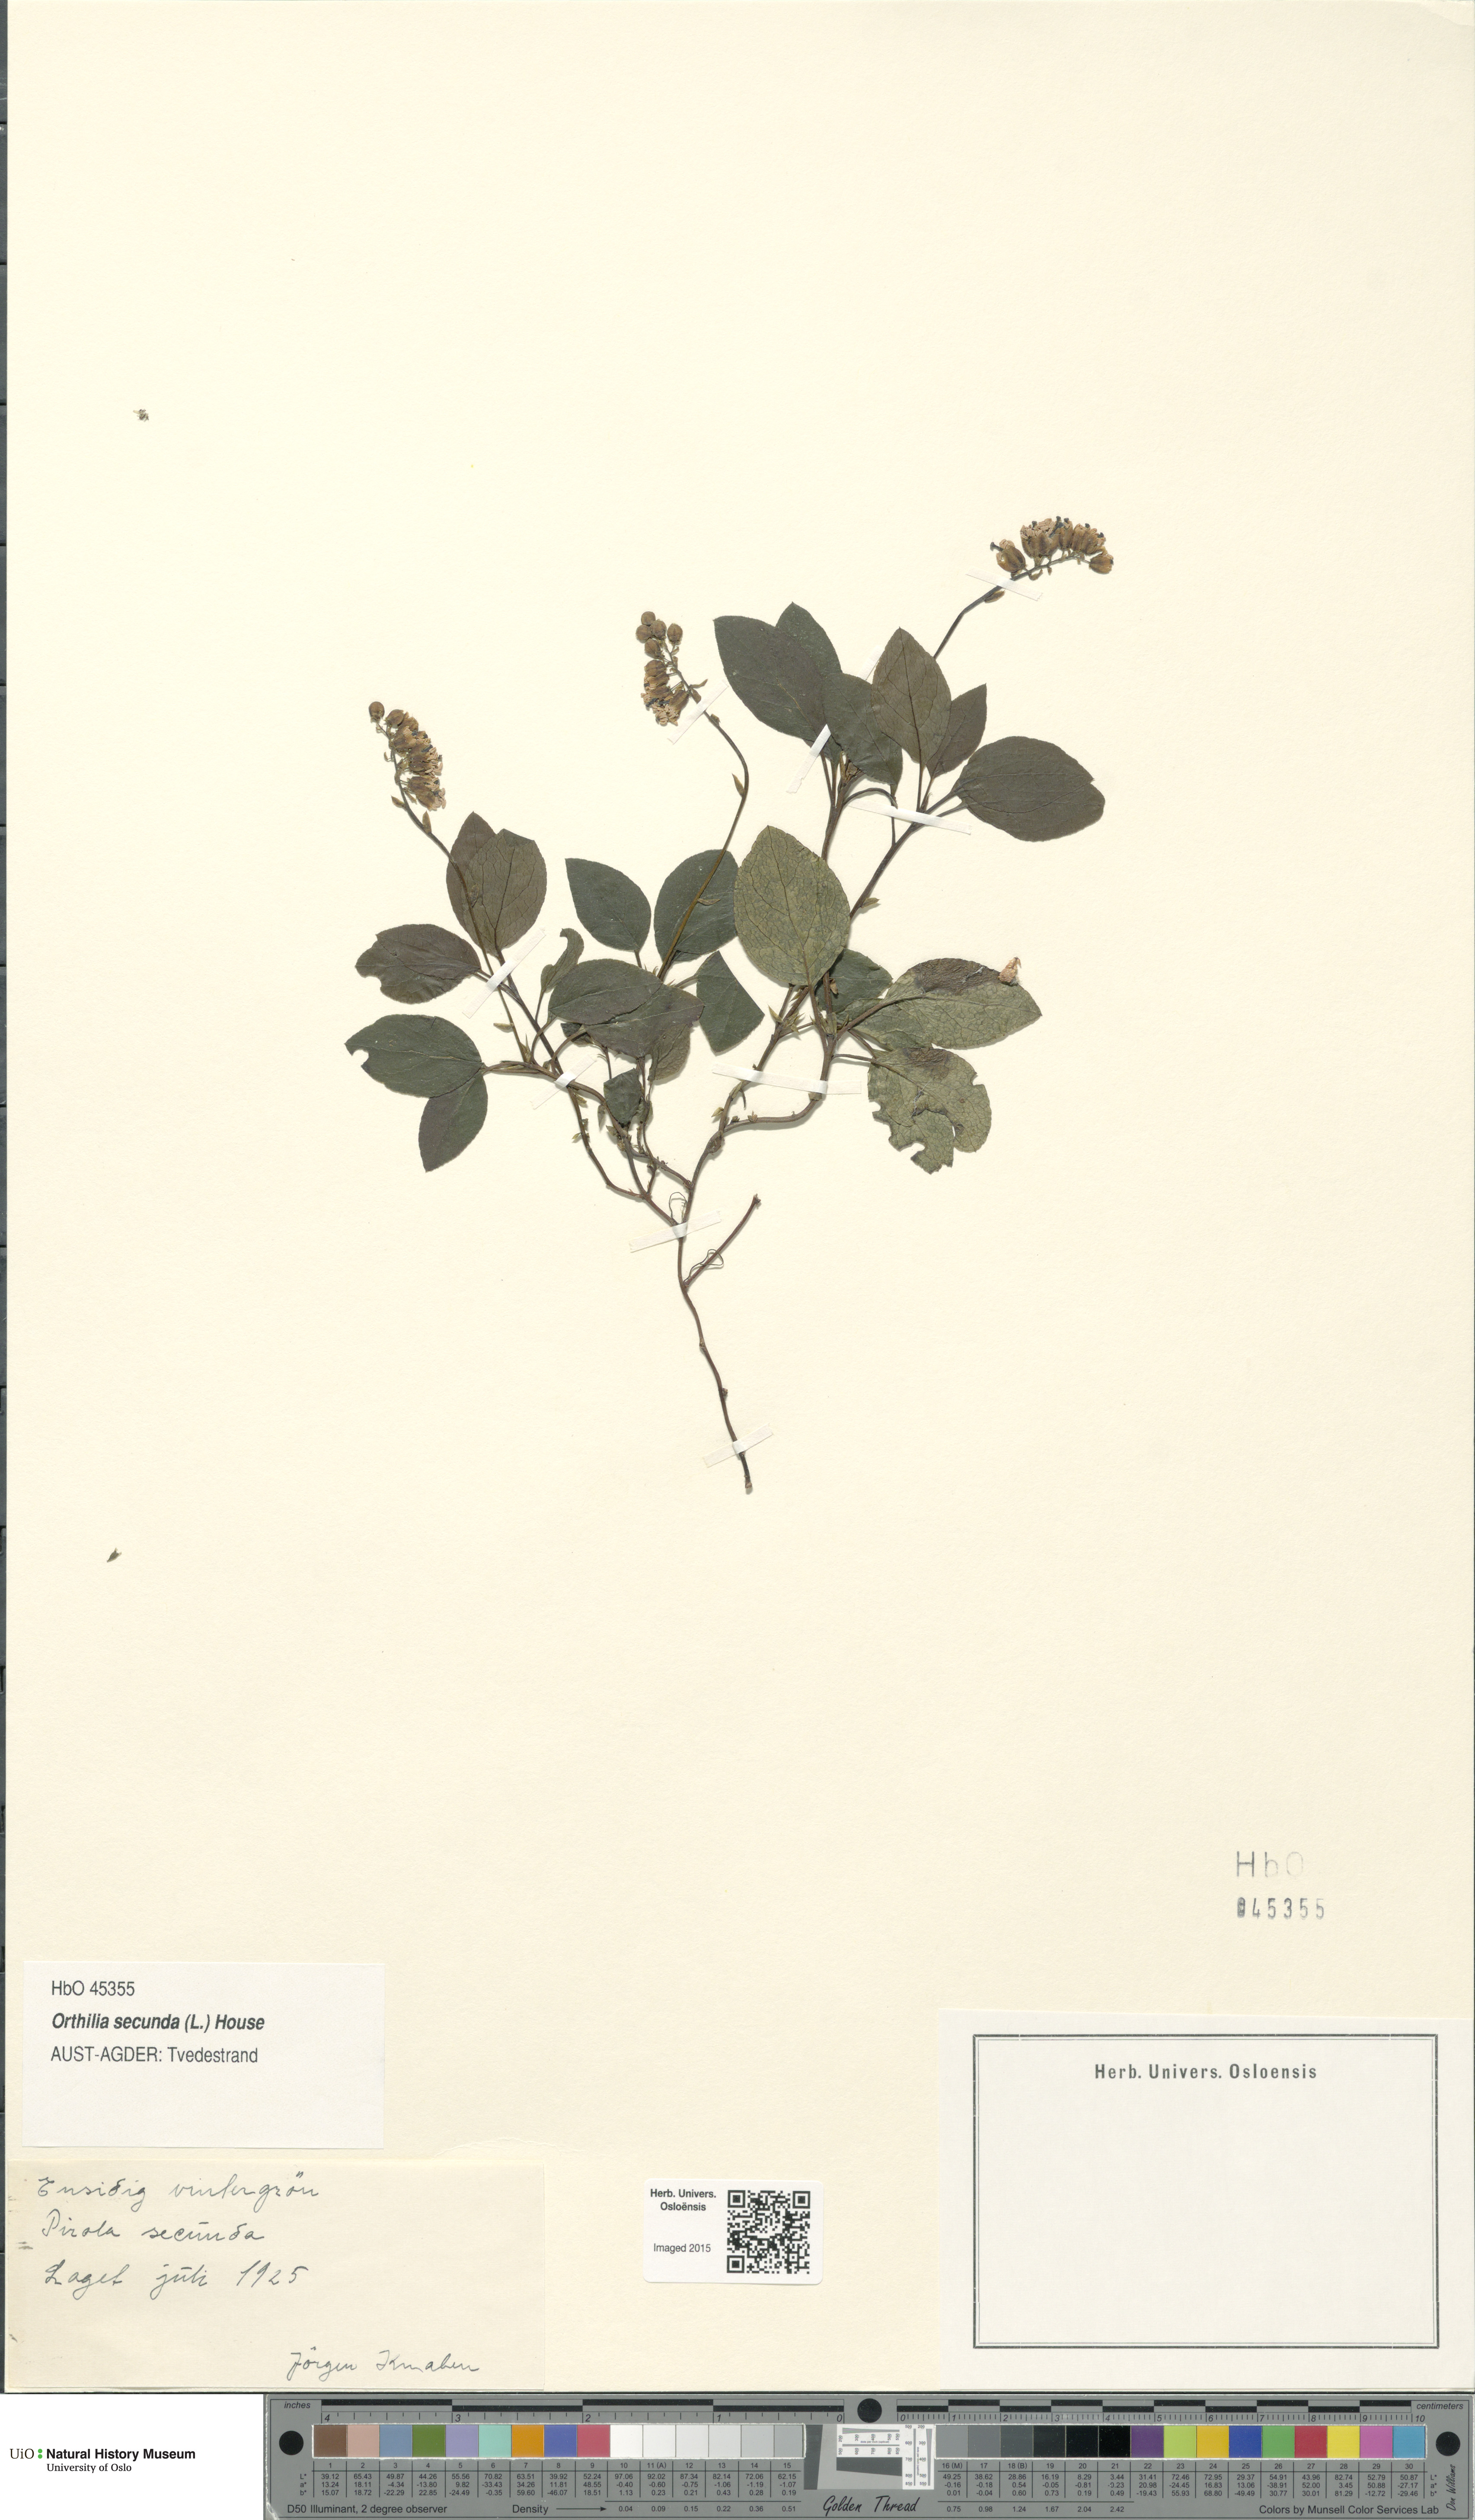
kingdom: Plantae
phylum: Tracheophyta
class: Magnoliopsida
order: Ericales
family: Ericaceae
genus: Orthilia
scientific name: Orthilia secunda
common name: One-sided orthilia
